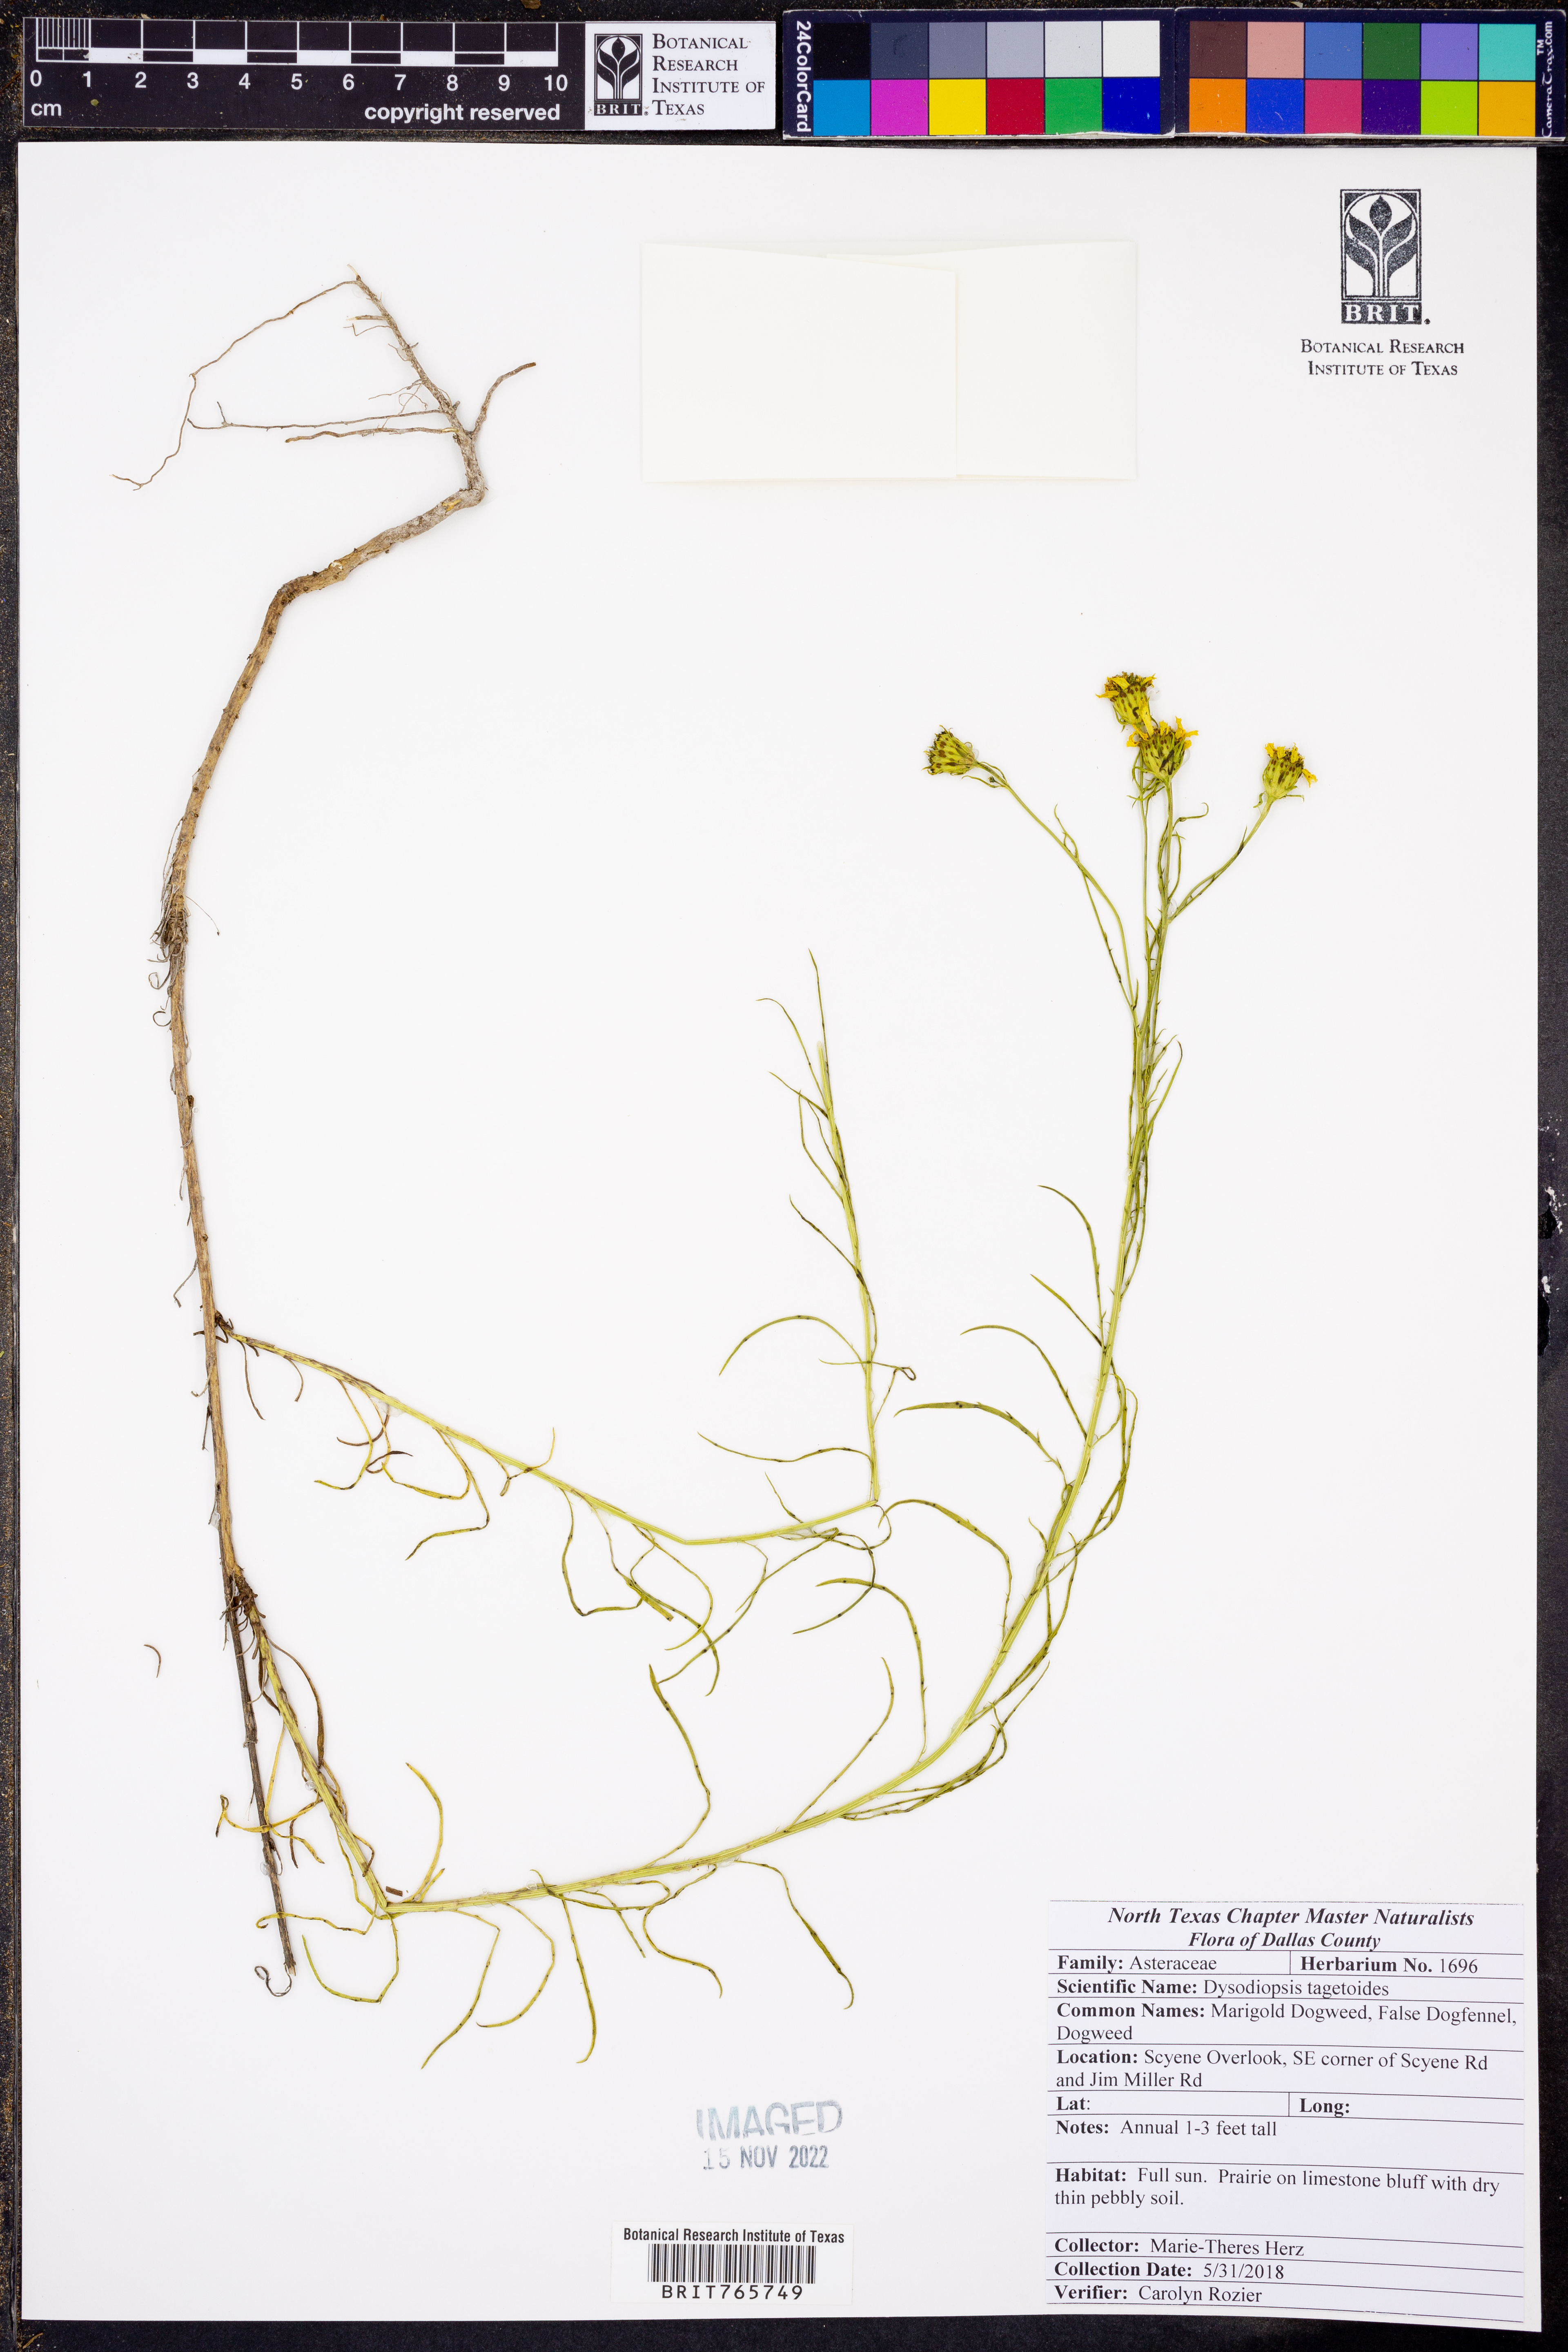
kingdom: Plantae
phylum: Tracheophyta
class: Magnoliopsida
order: Asterales
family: Asteraceae
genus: Dysodiopsis
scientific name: Dysodiopsis tagetoides
